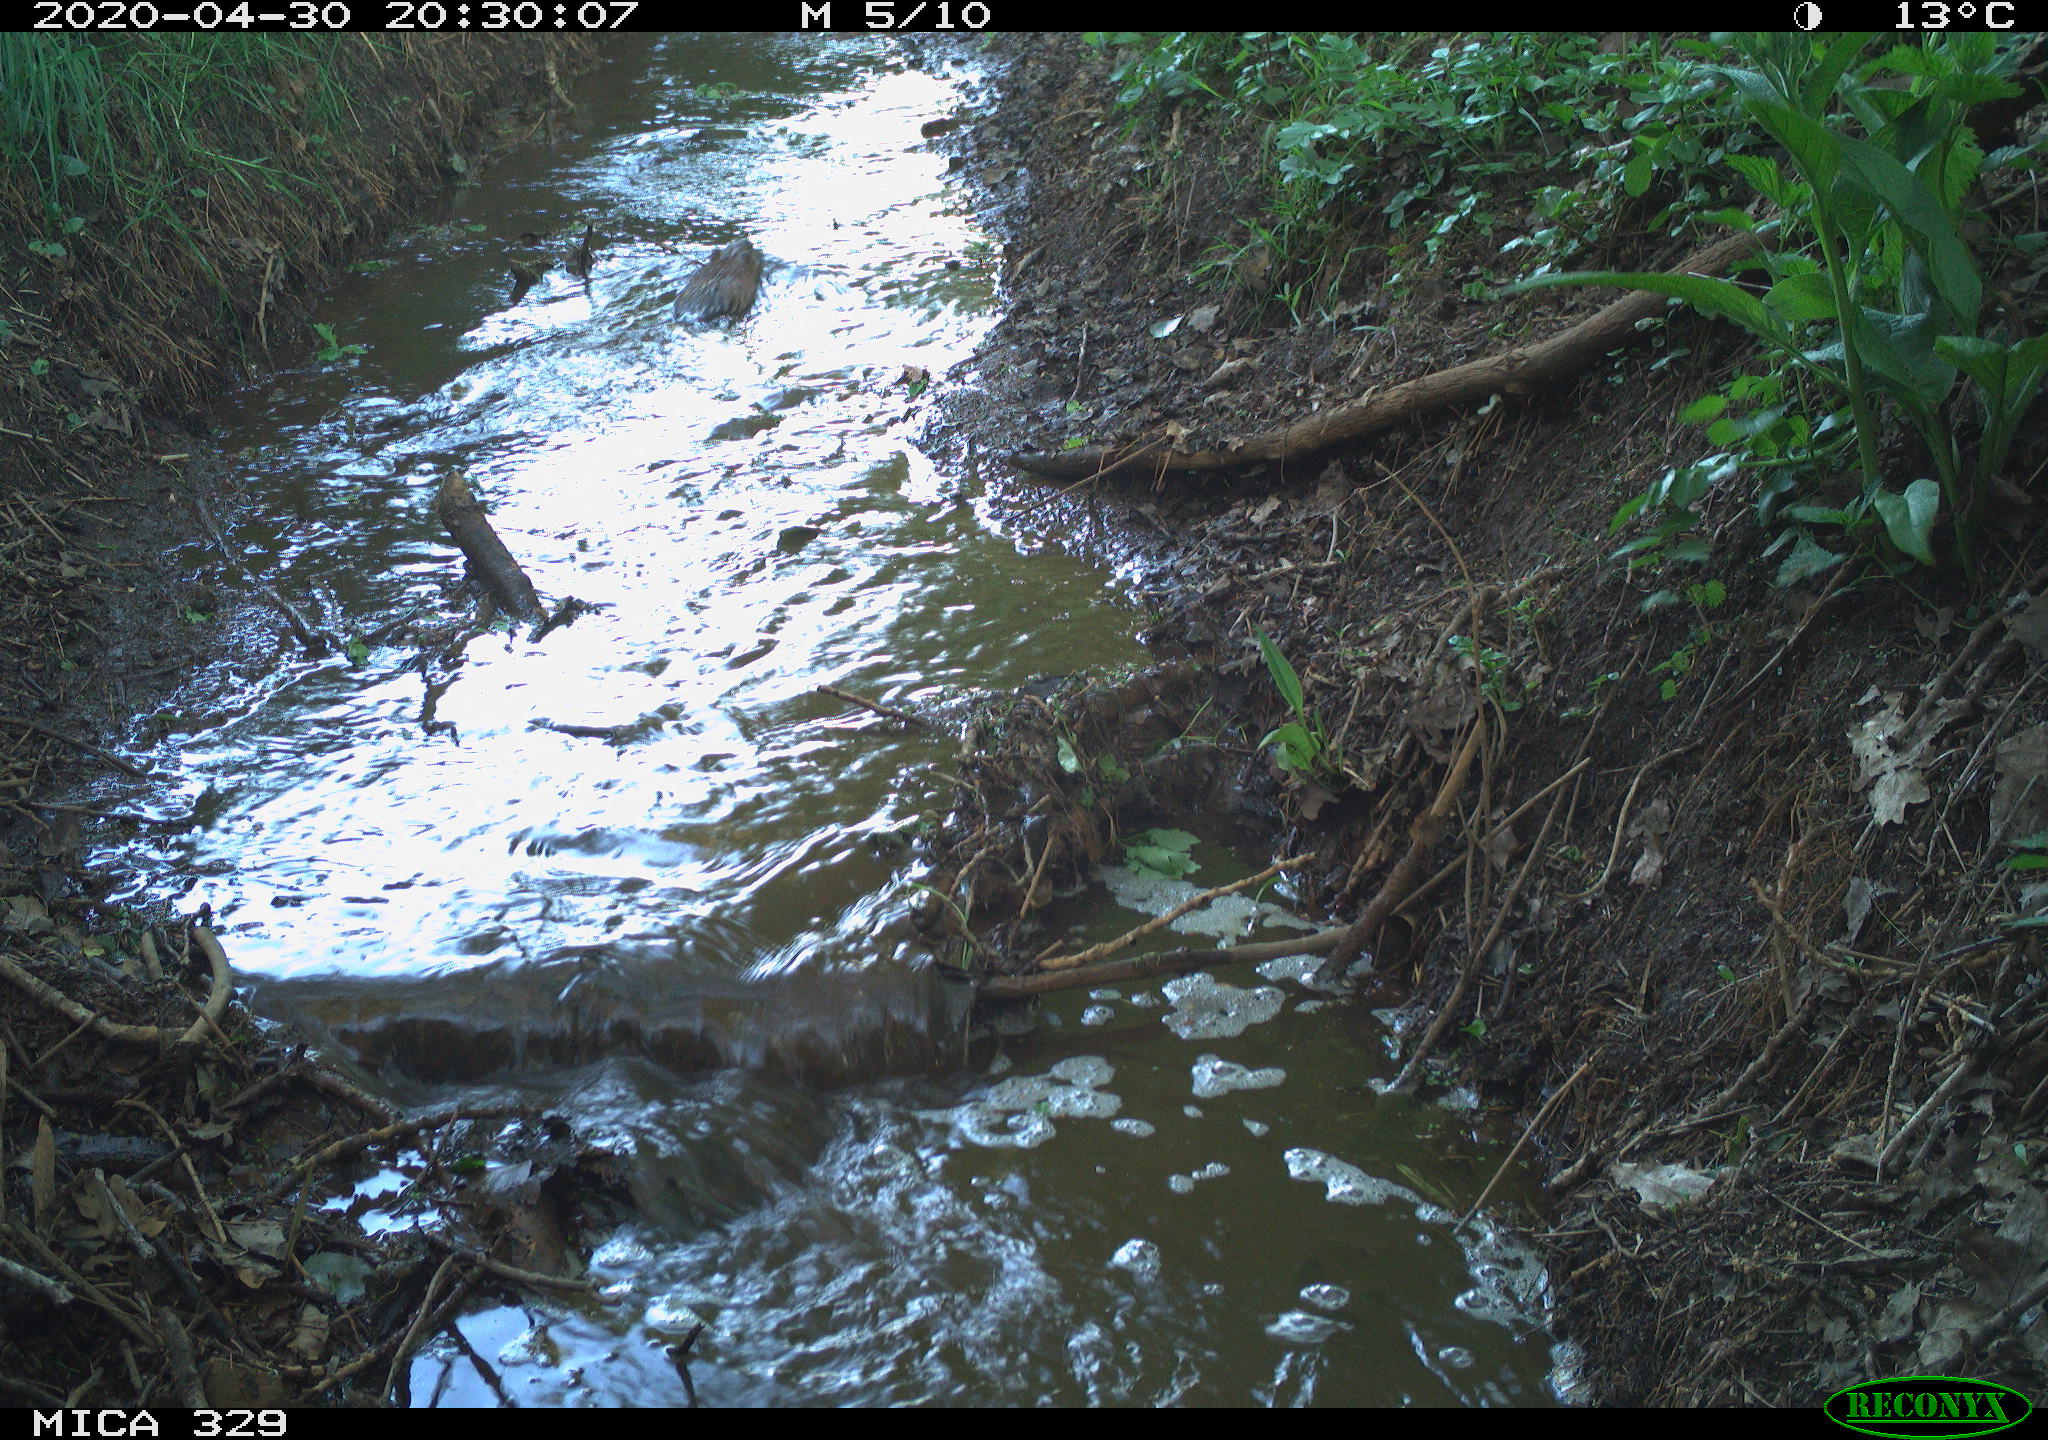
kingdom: Animalia
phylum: Chordata
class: Mammalia
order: Rodentia
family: Cricetidae
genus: Ondatra
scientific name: Ondatra zibethicus
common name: Muskrat
